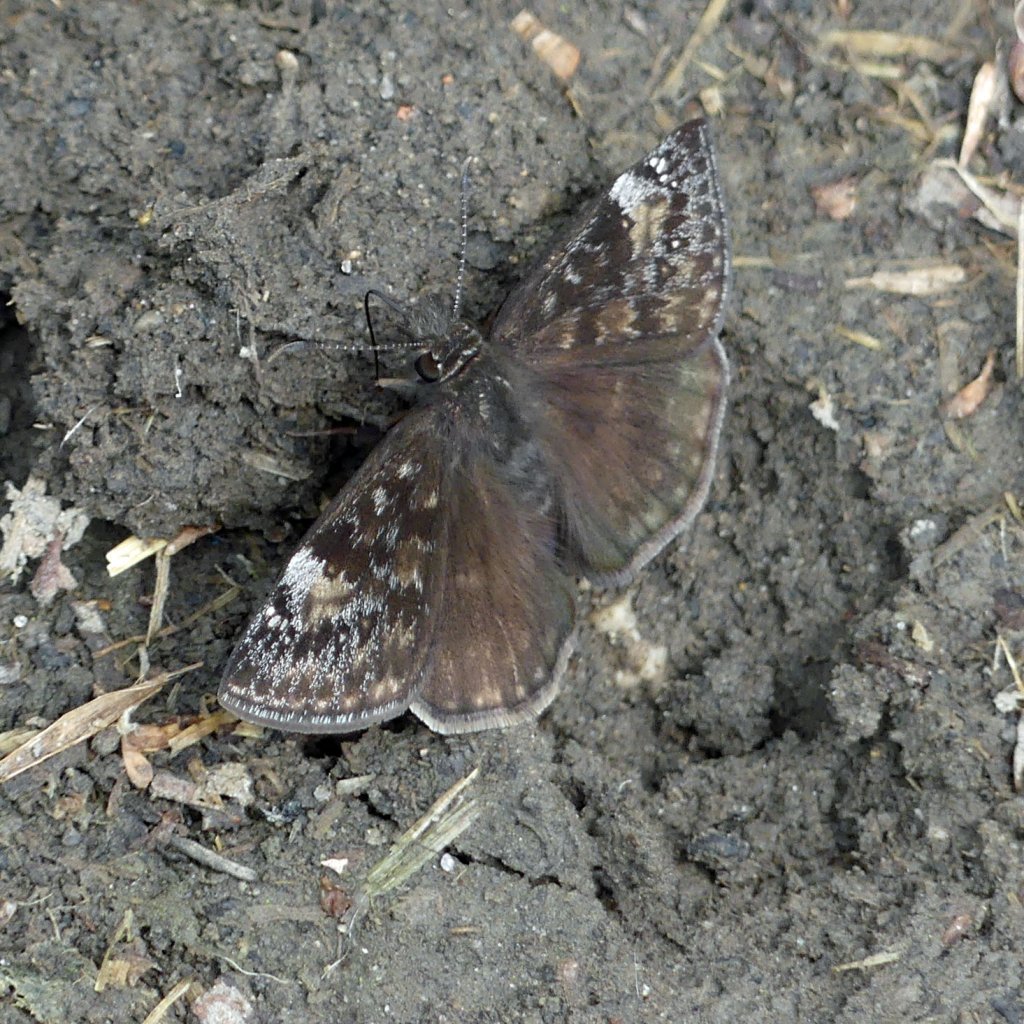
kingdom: Animalia
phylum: Arthropoda
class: Insecta
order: Lepidoptera
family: Hesperiidae
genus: Gesta
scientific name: Gesta
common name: Wild Indigo Duskywing
